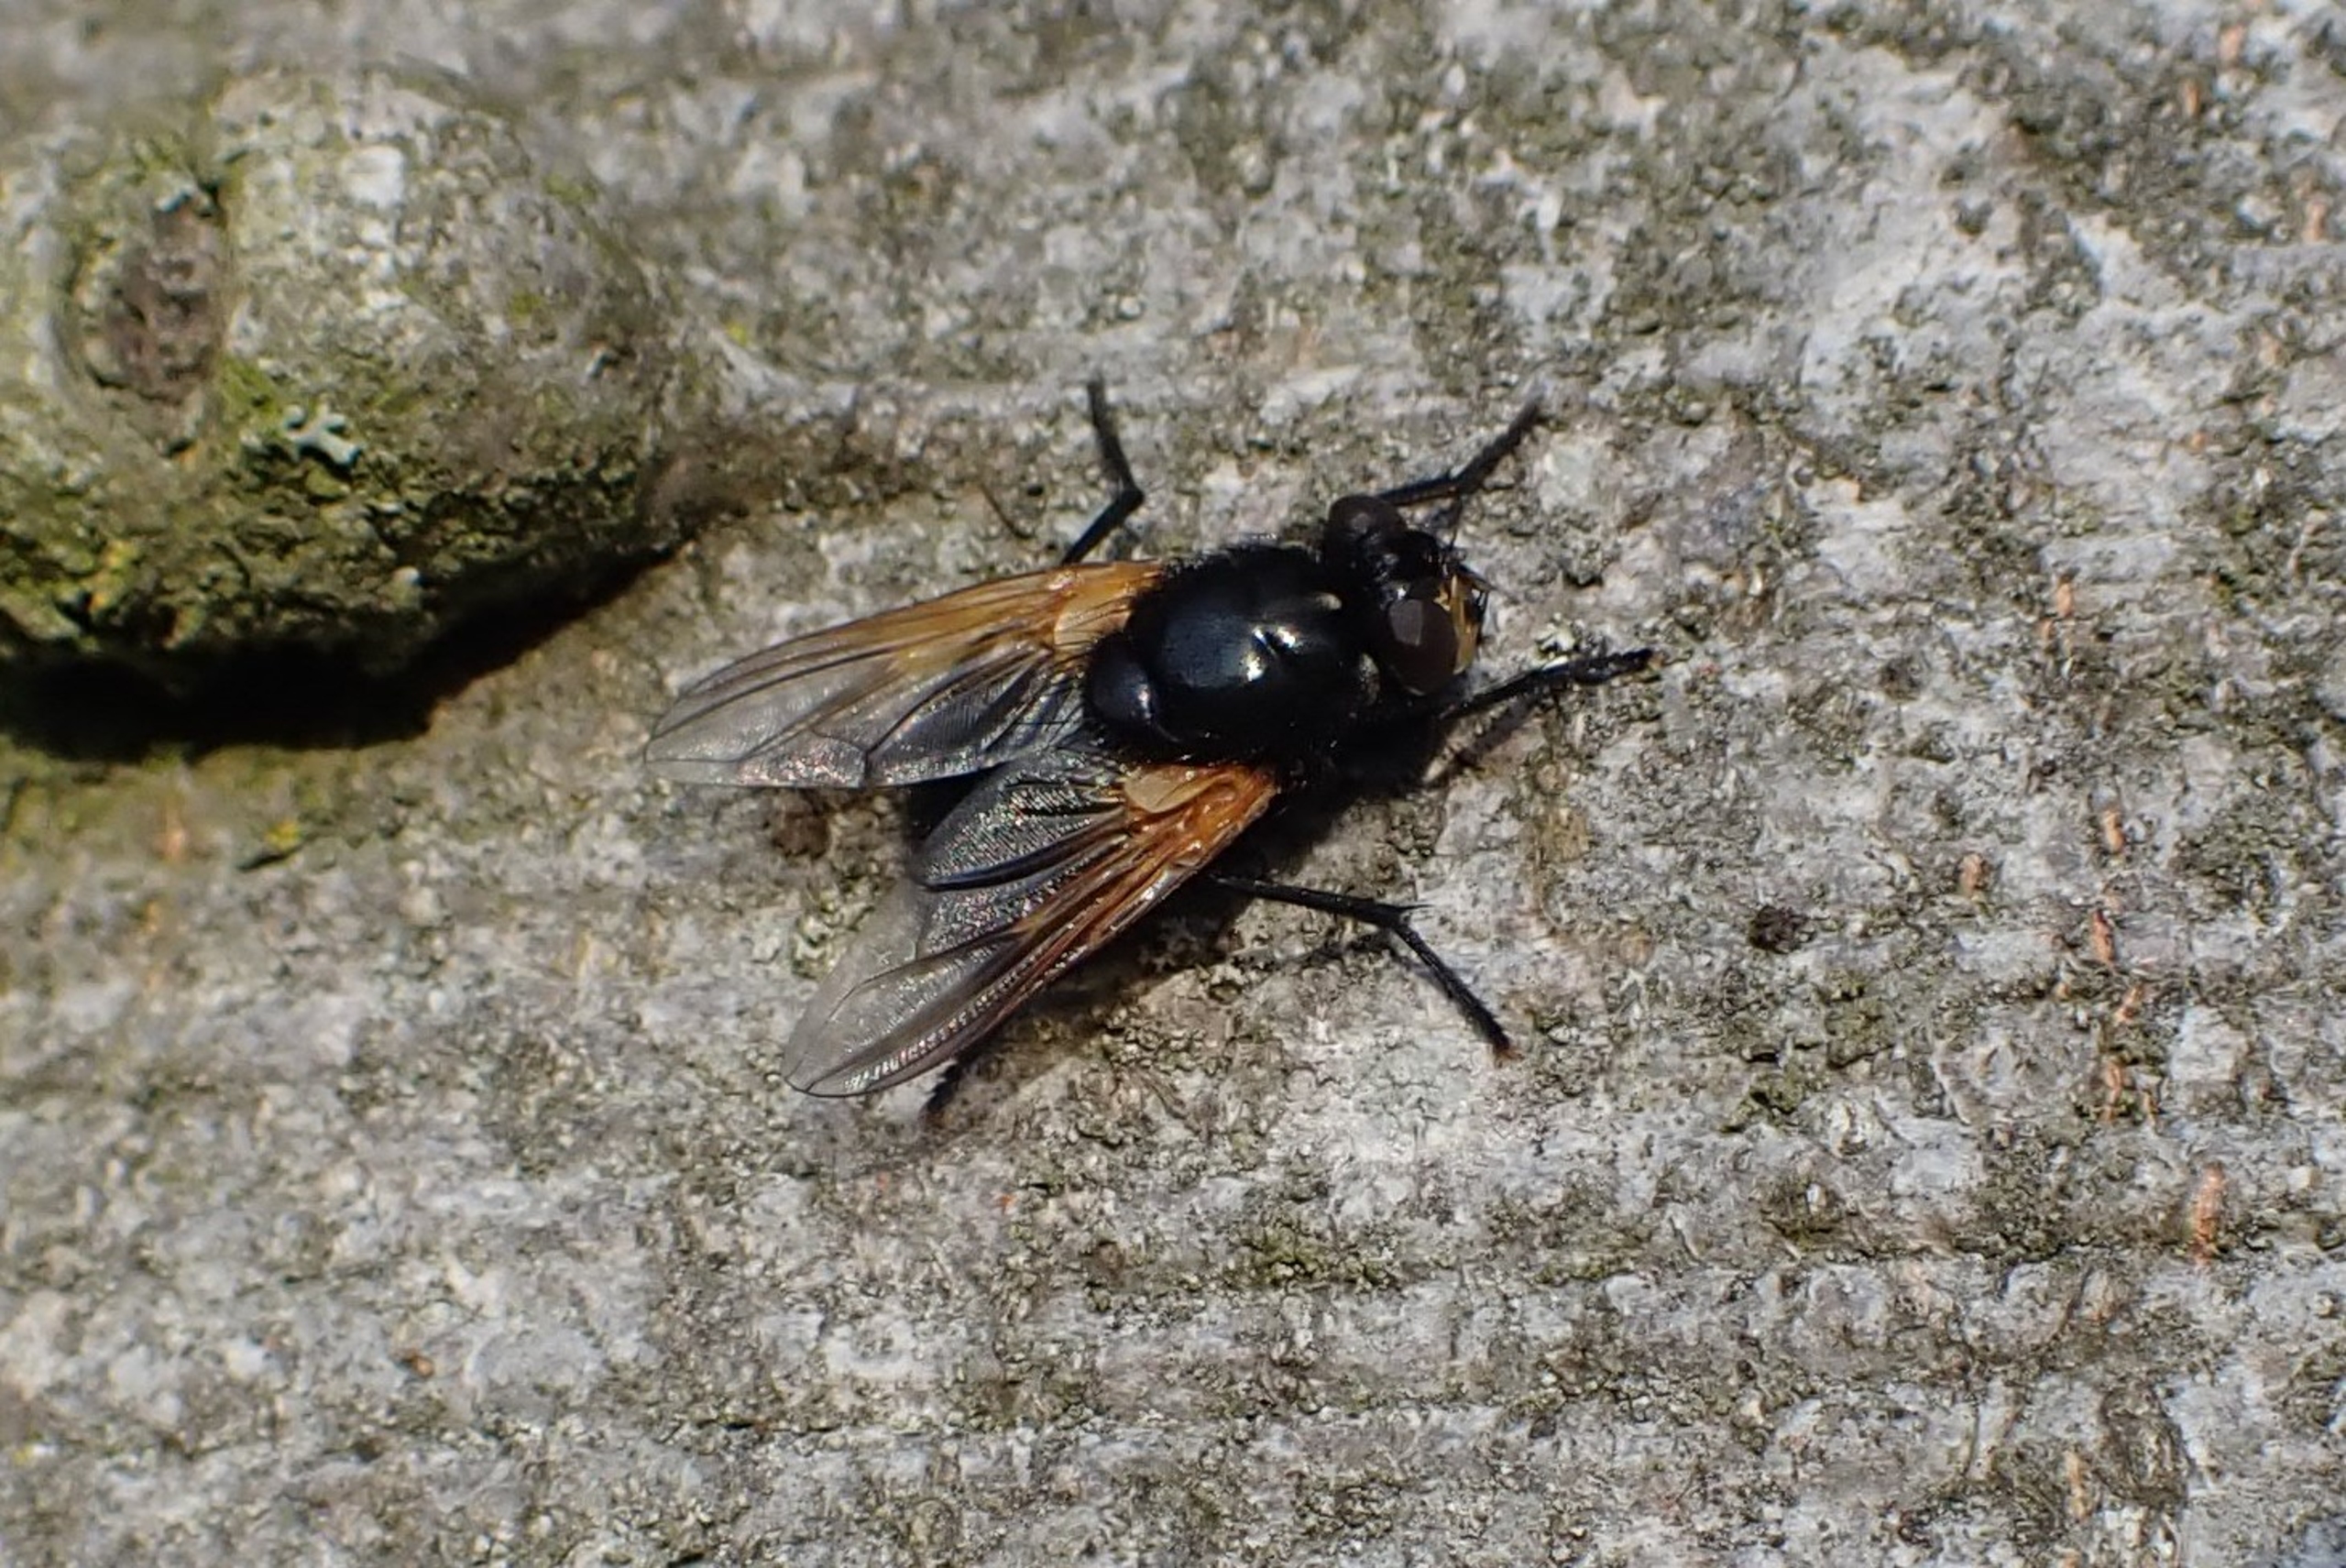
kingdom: Animalia
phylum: Arthropoda
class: Insecta
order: Diptera
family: Muscidae
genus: Mesembrina
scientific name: Mesembrina meridiana
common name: Gulvinget flue
